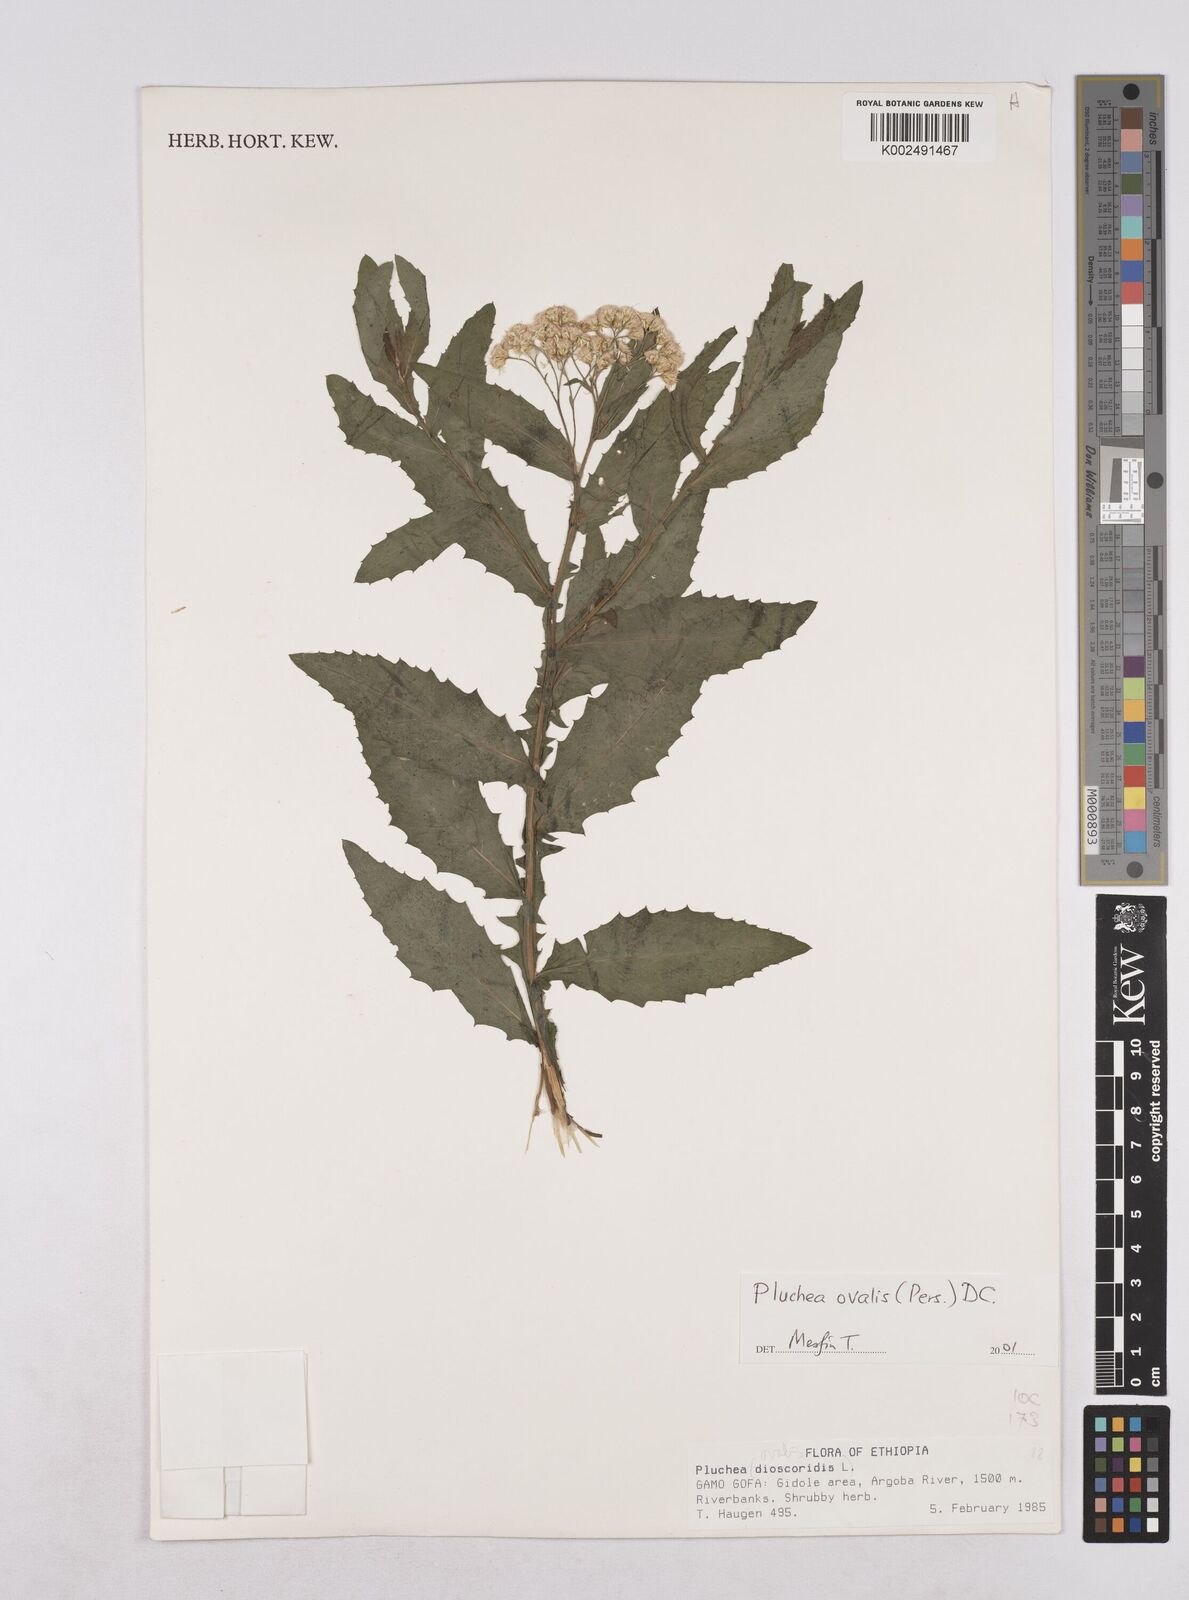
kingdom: Plantae
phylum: Tracheophyta
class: Magnoliopsida
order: Asterales
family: Asteraceae
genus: Pluchea
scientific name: Pluchea ovalis
